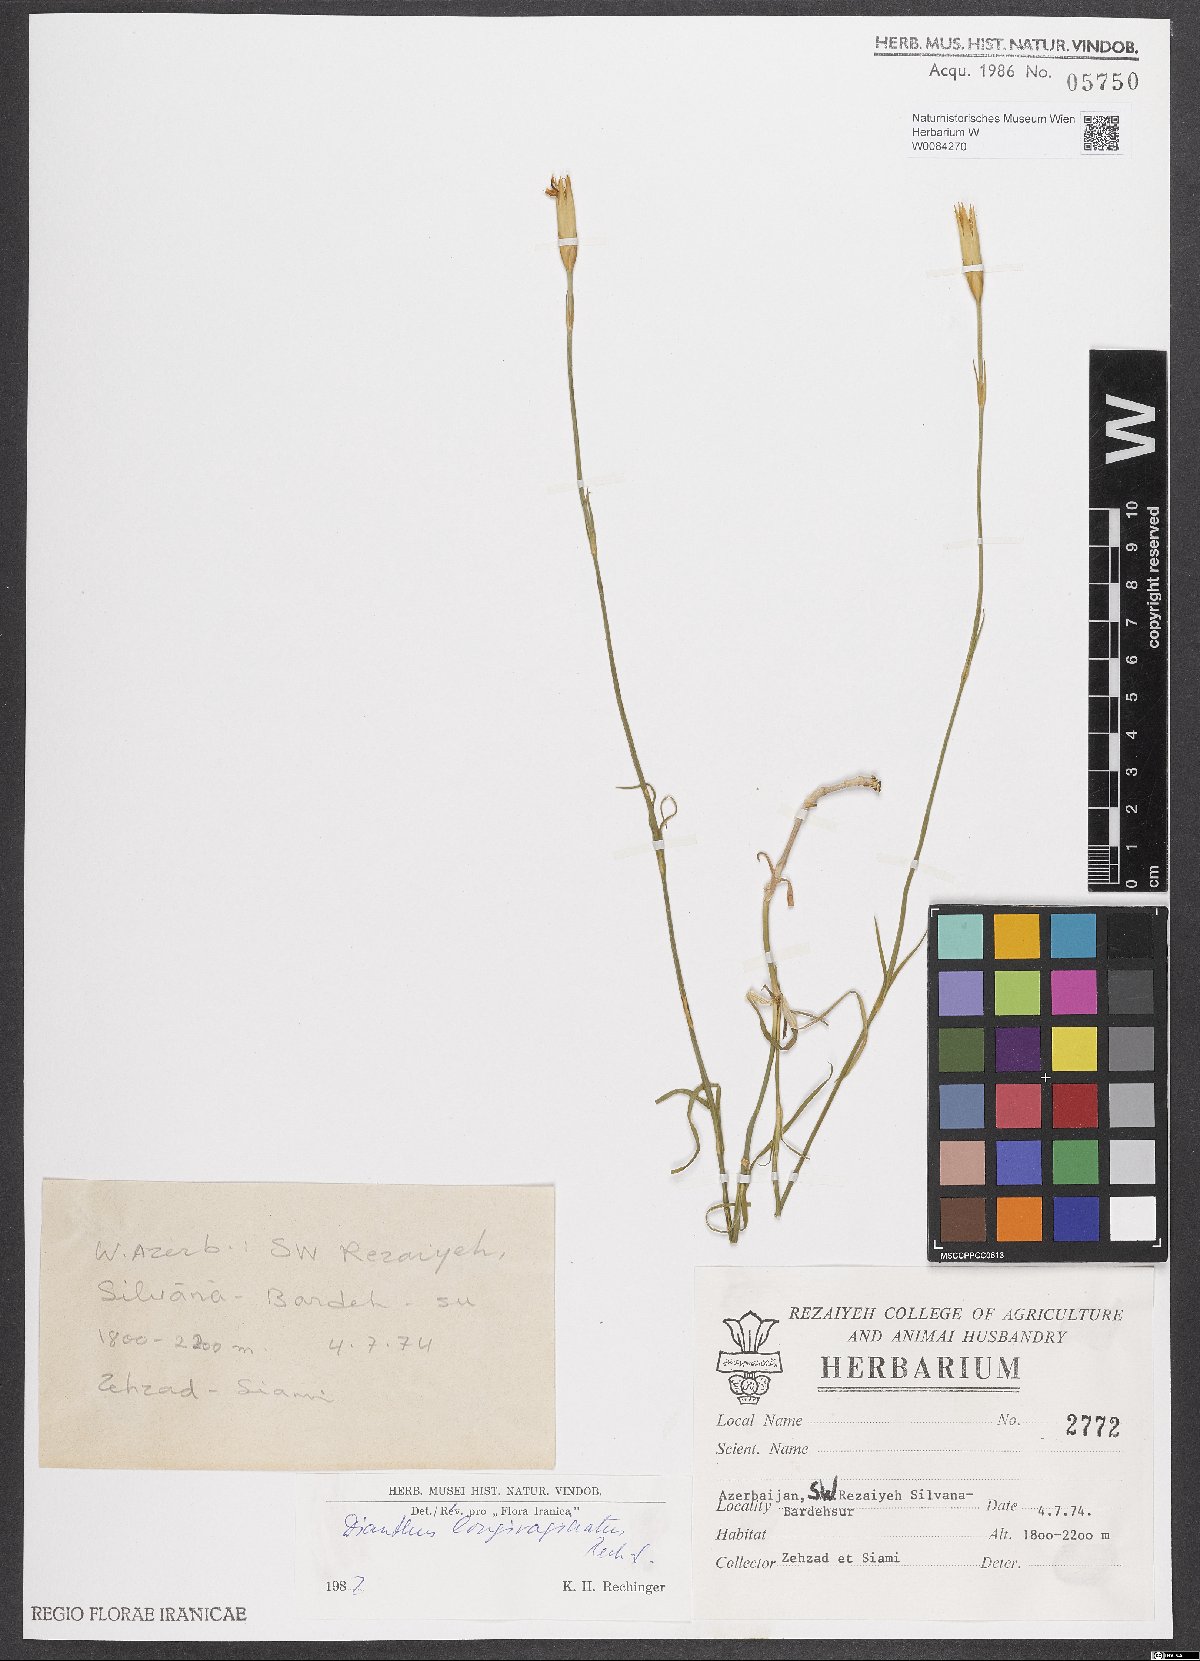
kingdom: Plantae
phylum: Tracheophyta
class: Magnoliopsida
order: Caryophyllales
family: Caryophyllaceae
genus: Dianthus
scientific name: Dianthus longivaginatus
